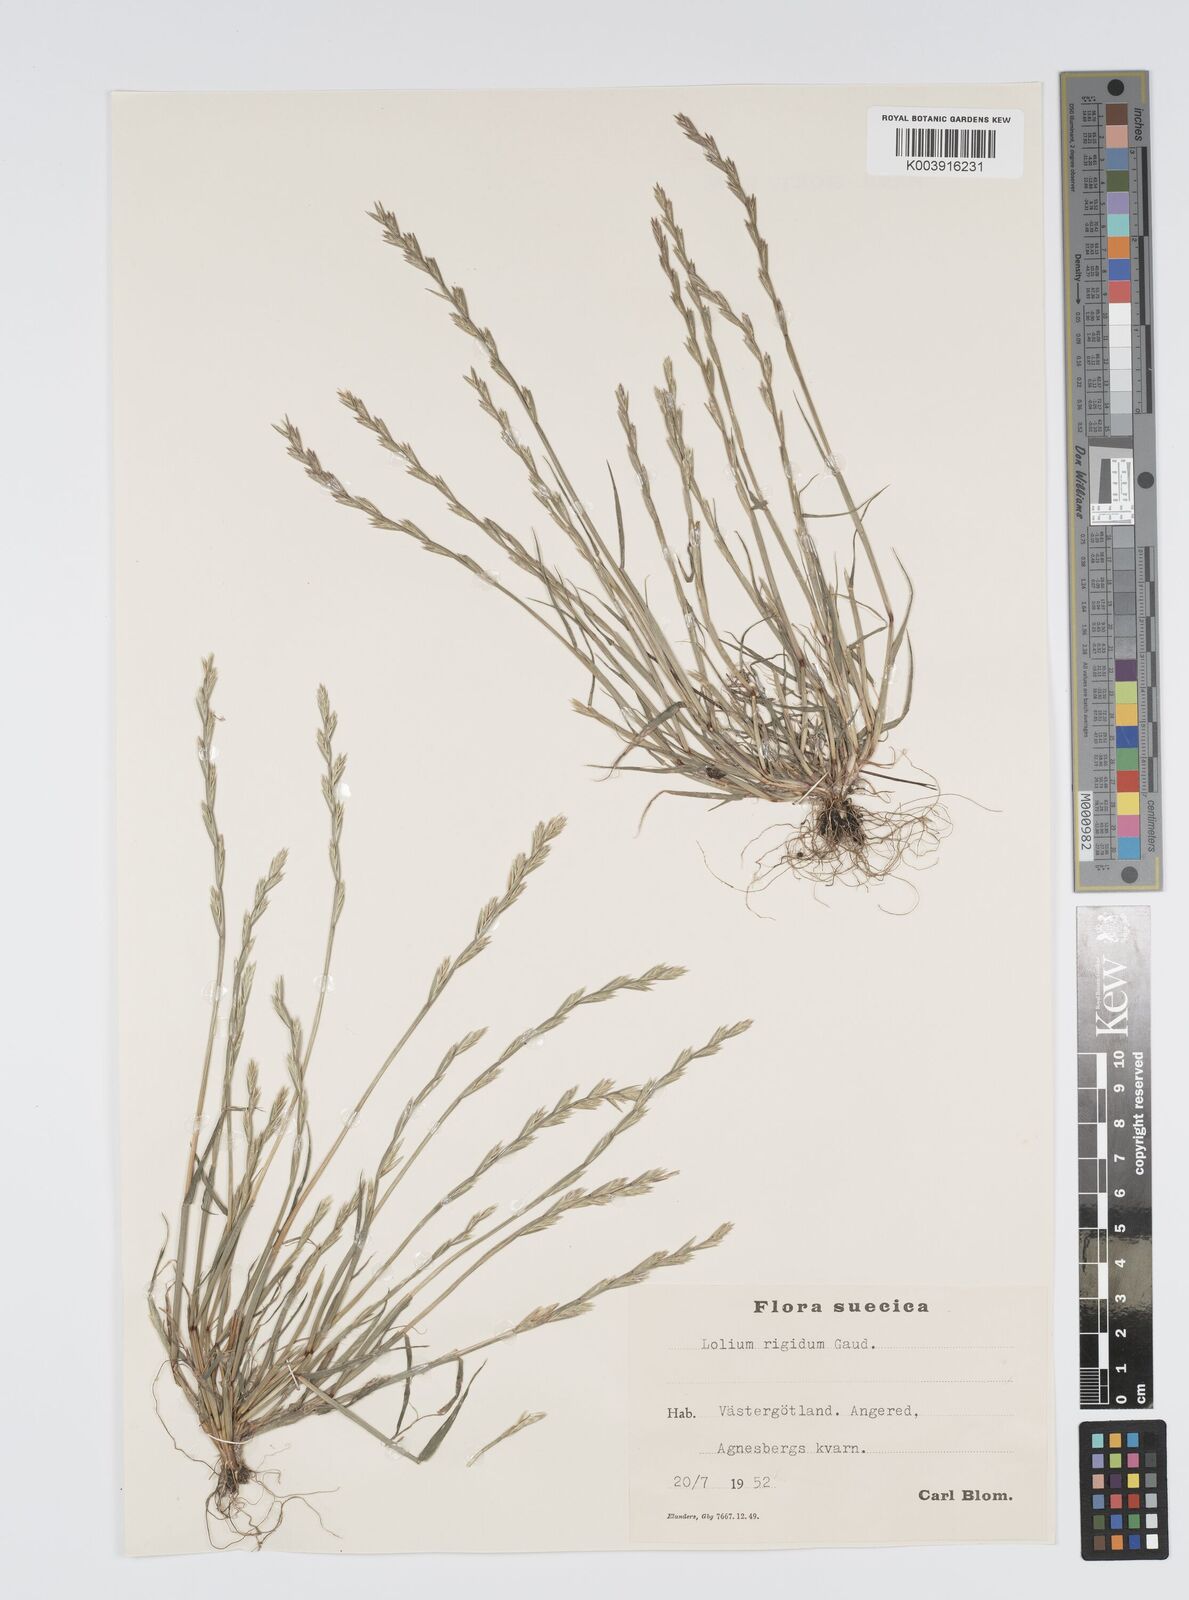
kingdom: Plantae
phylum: Tracheophyta
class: Liliopsida
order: Poales
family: Poaceae
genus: Lolium
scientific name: Lolium rigidum
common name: Wimmera ryegrass
